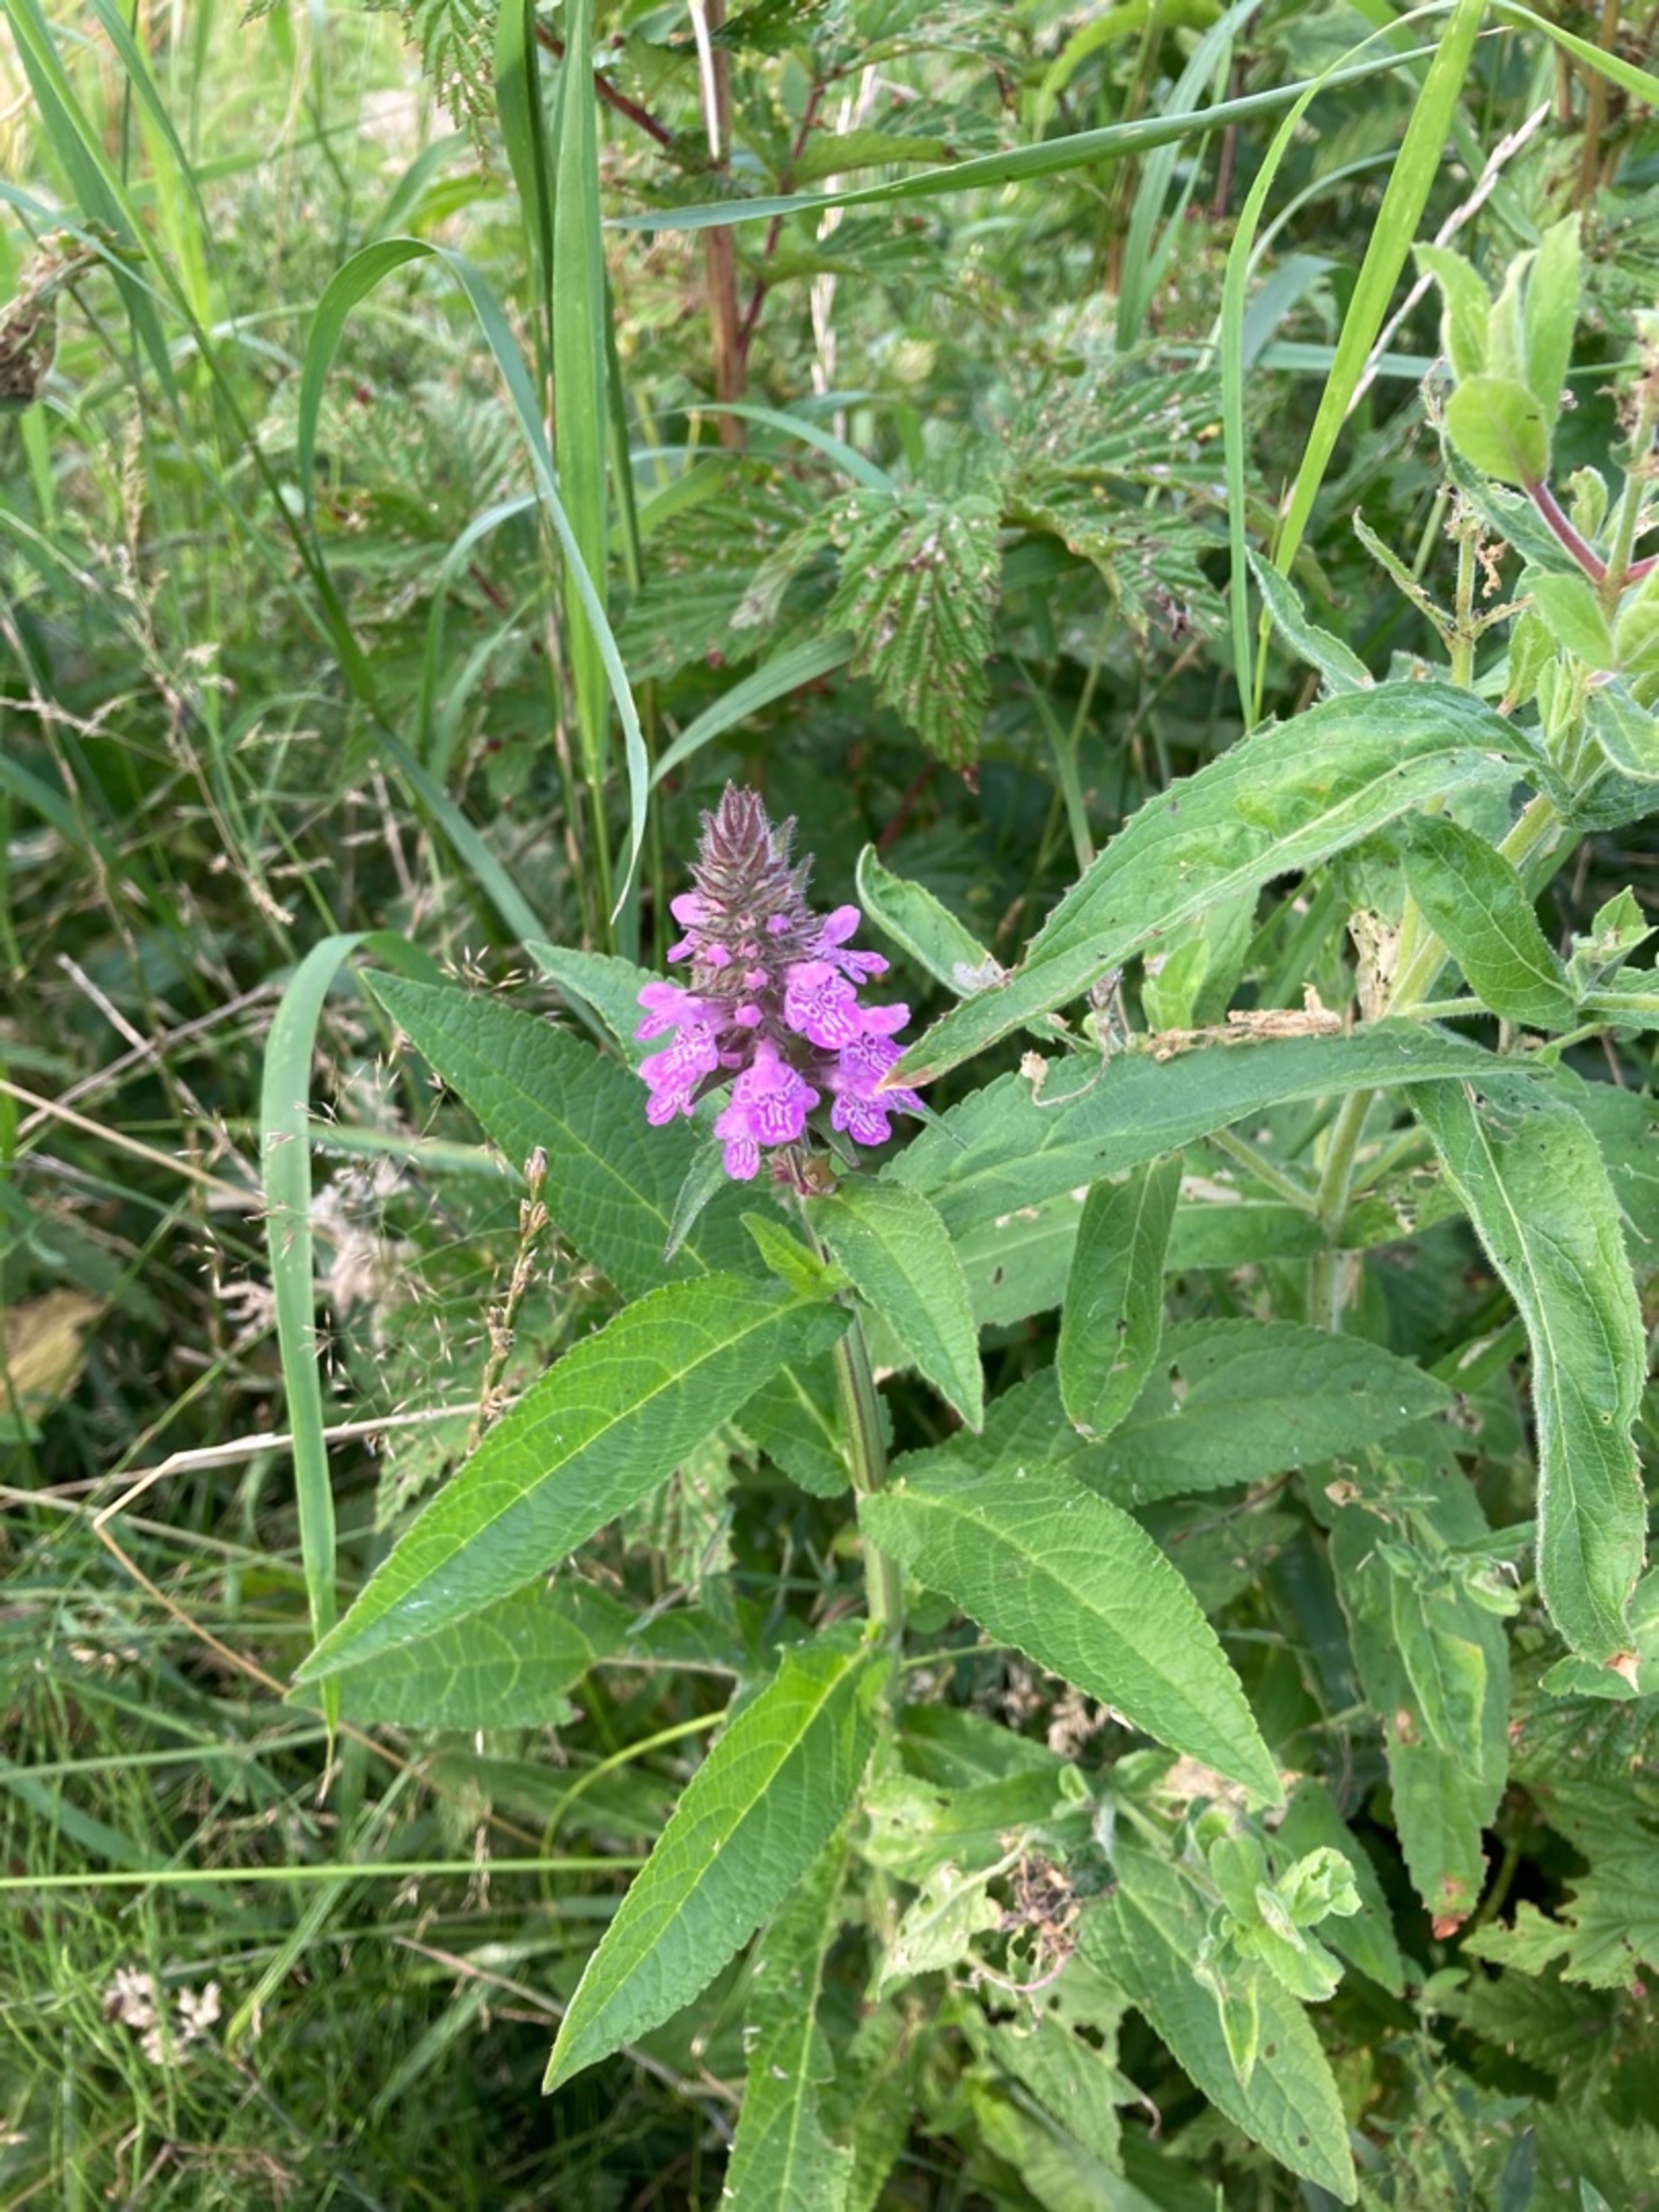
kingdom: Plantae
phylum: Tracheophyta
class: Magnoliopsida
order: Lamiales
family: Lamiaceae
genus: Stachys
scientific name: Stachys palustris
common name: Kær-galtetand
